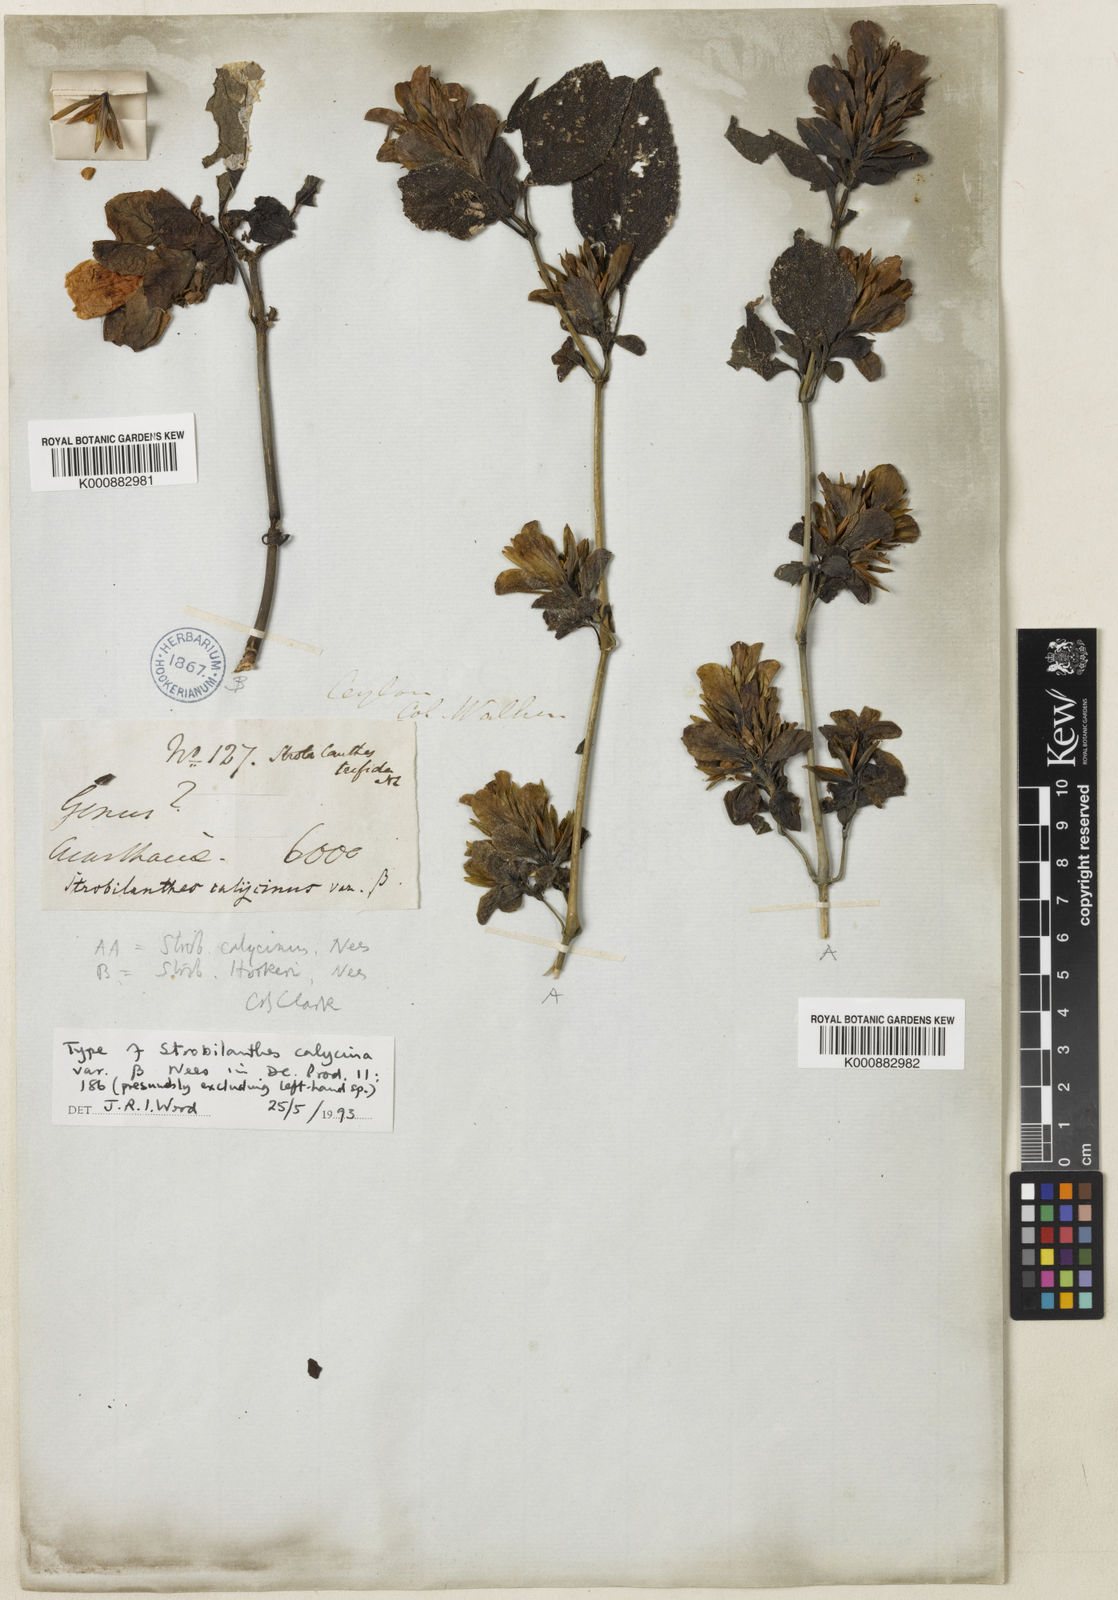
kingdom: Plantae
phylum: Tracheophyta
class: Magnoliopsida
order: Lamiales
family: Acanthaceae
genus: Strobilanthes
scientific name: Strobilanthes calycina
